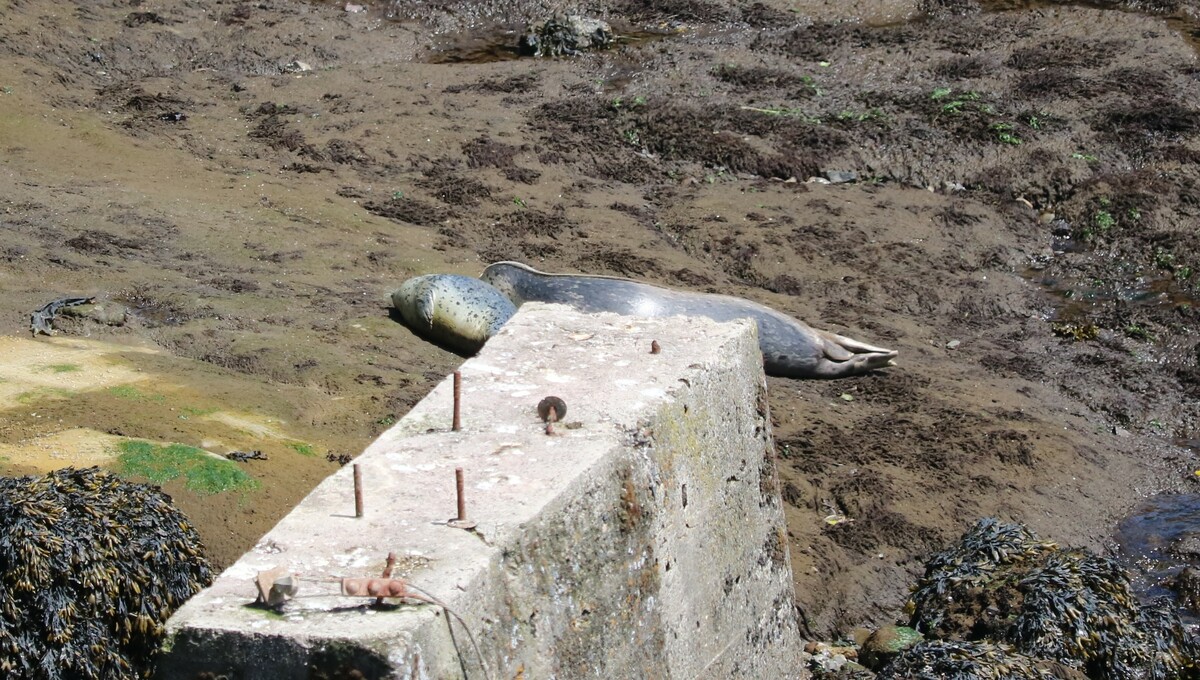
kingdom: Animalia
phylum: Chordata
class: Mammalia
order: Carnivora
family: Phocidae
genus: Phoca
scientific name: Phoca vitulina
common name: Harbor seal
